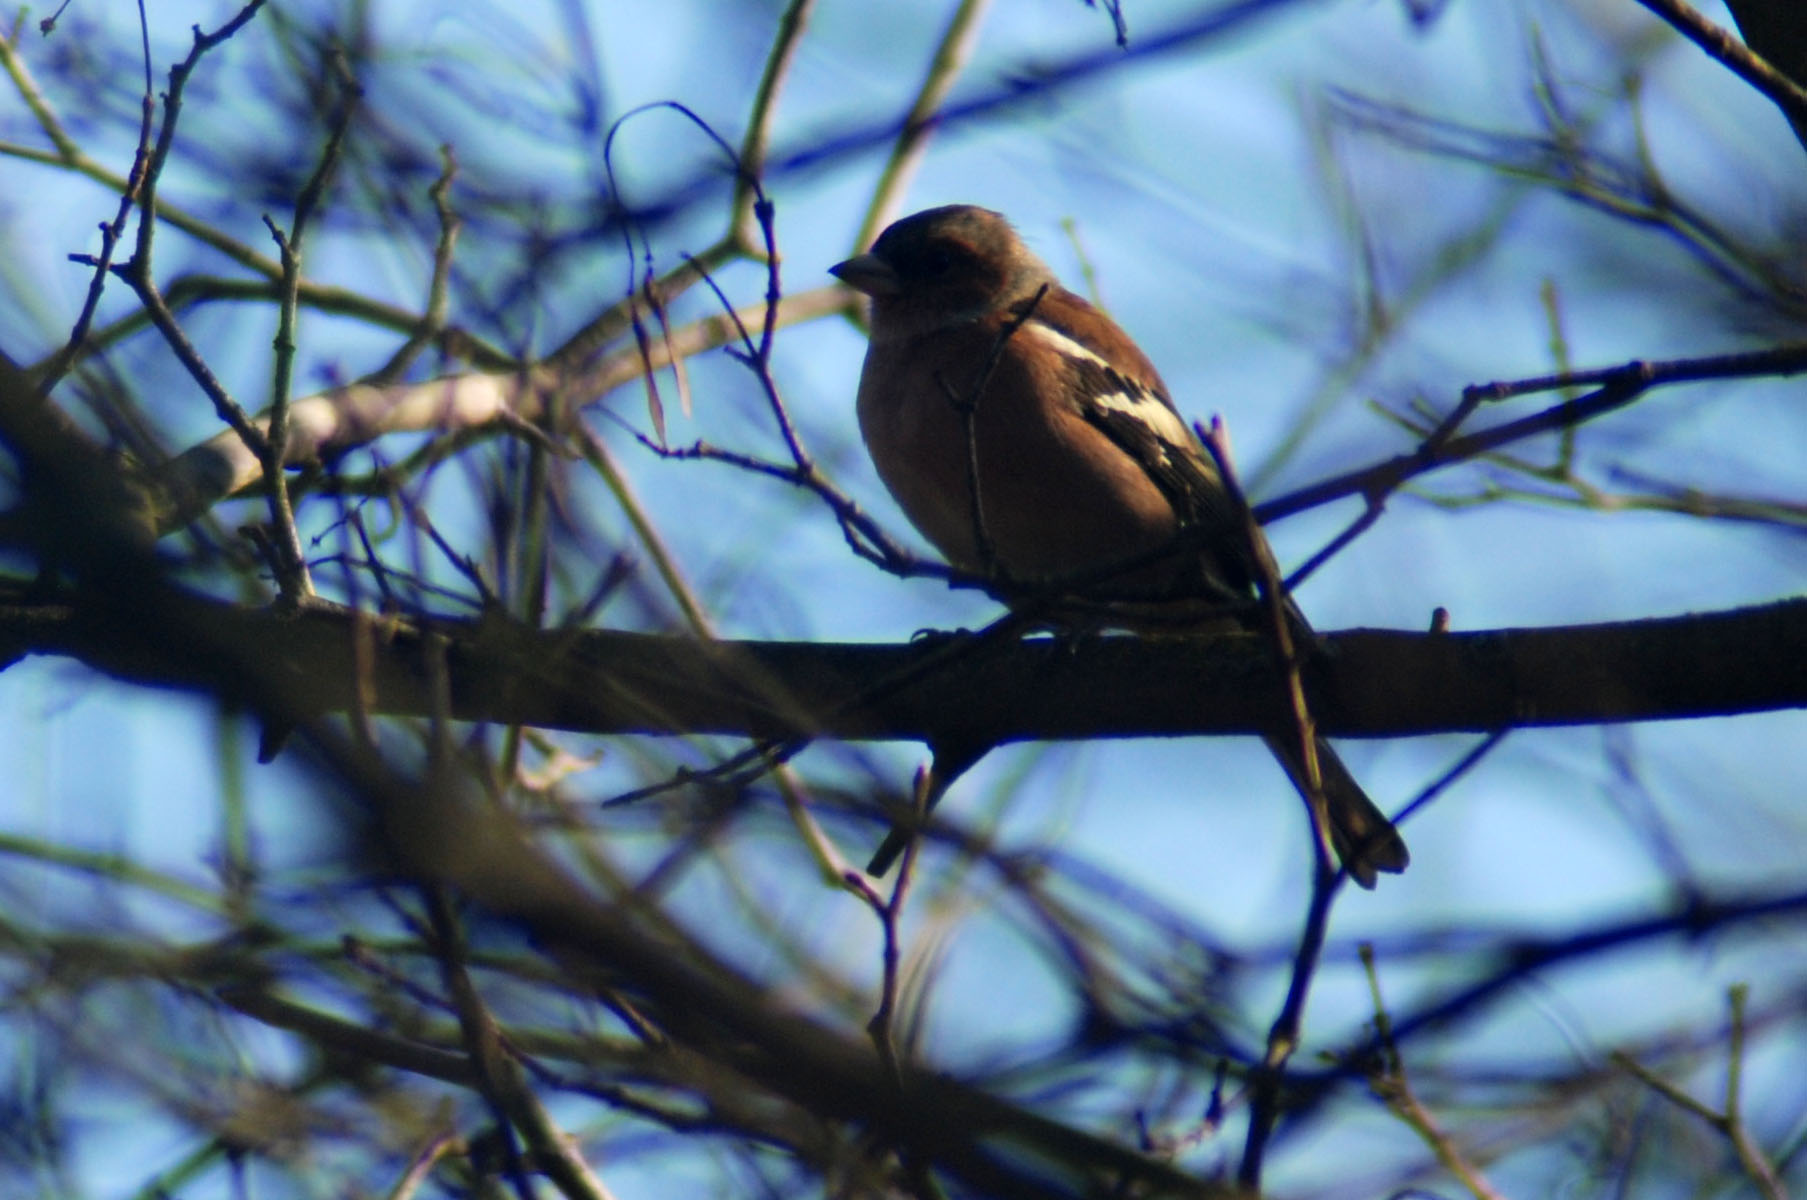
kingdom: Animalia
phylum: Chordata
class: Aves
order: Passeriformes
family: Fringillidae
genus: Fringilla
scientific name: Fringilla coelebs
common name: Common chaffinch
